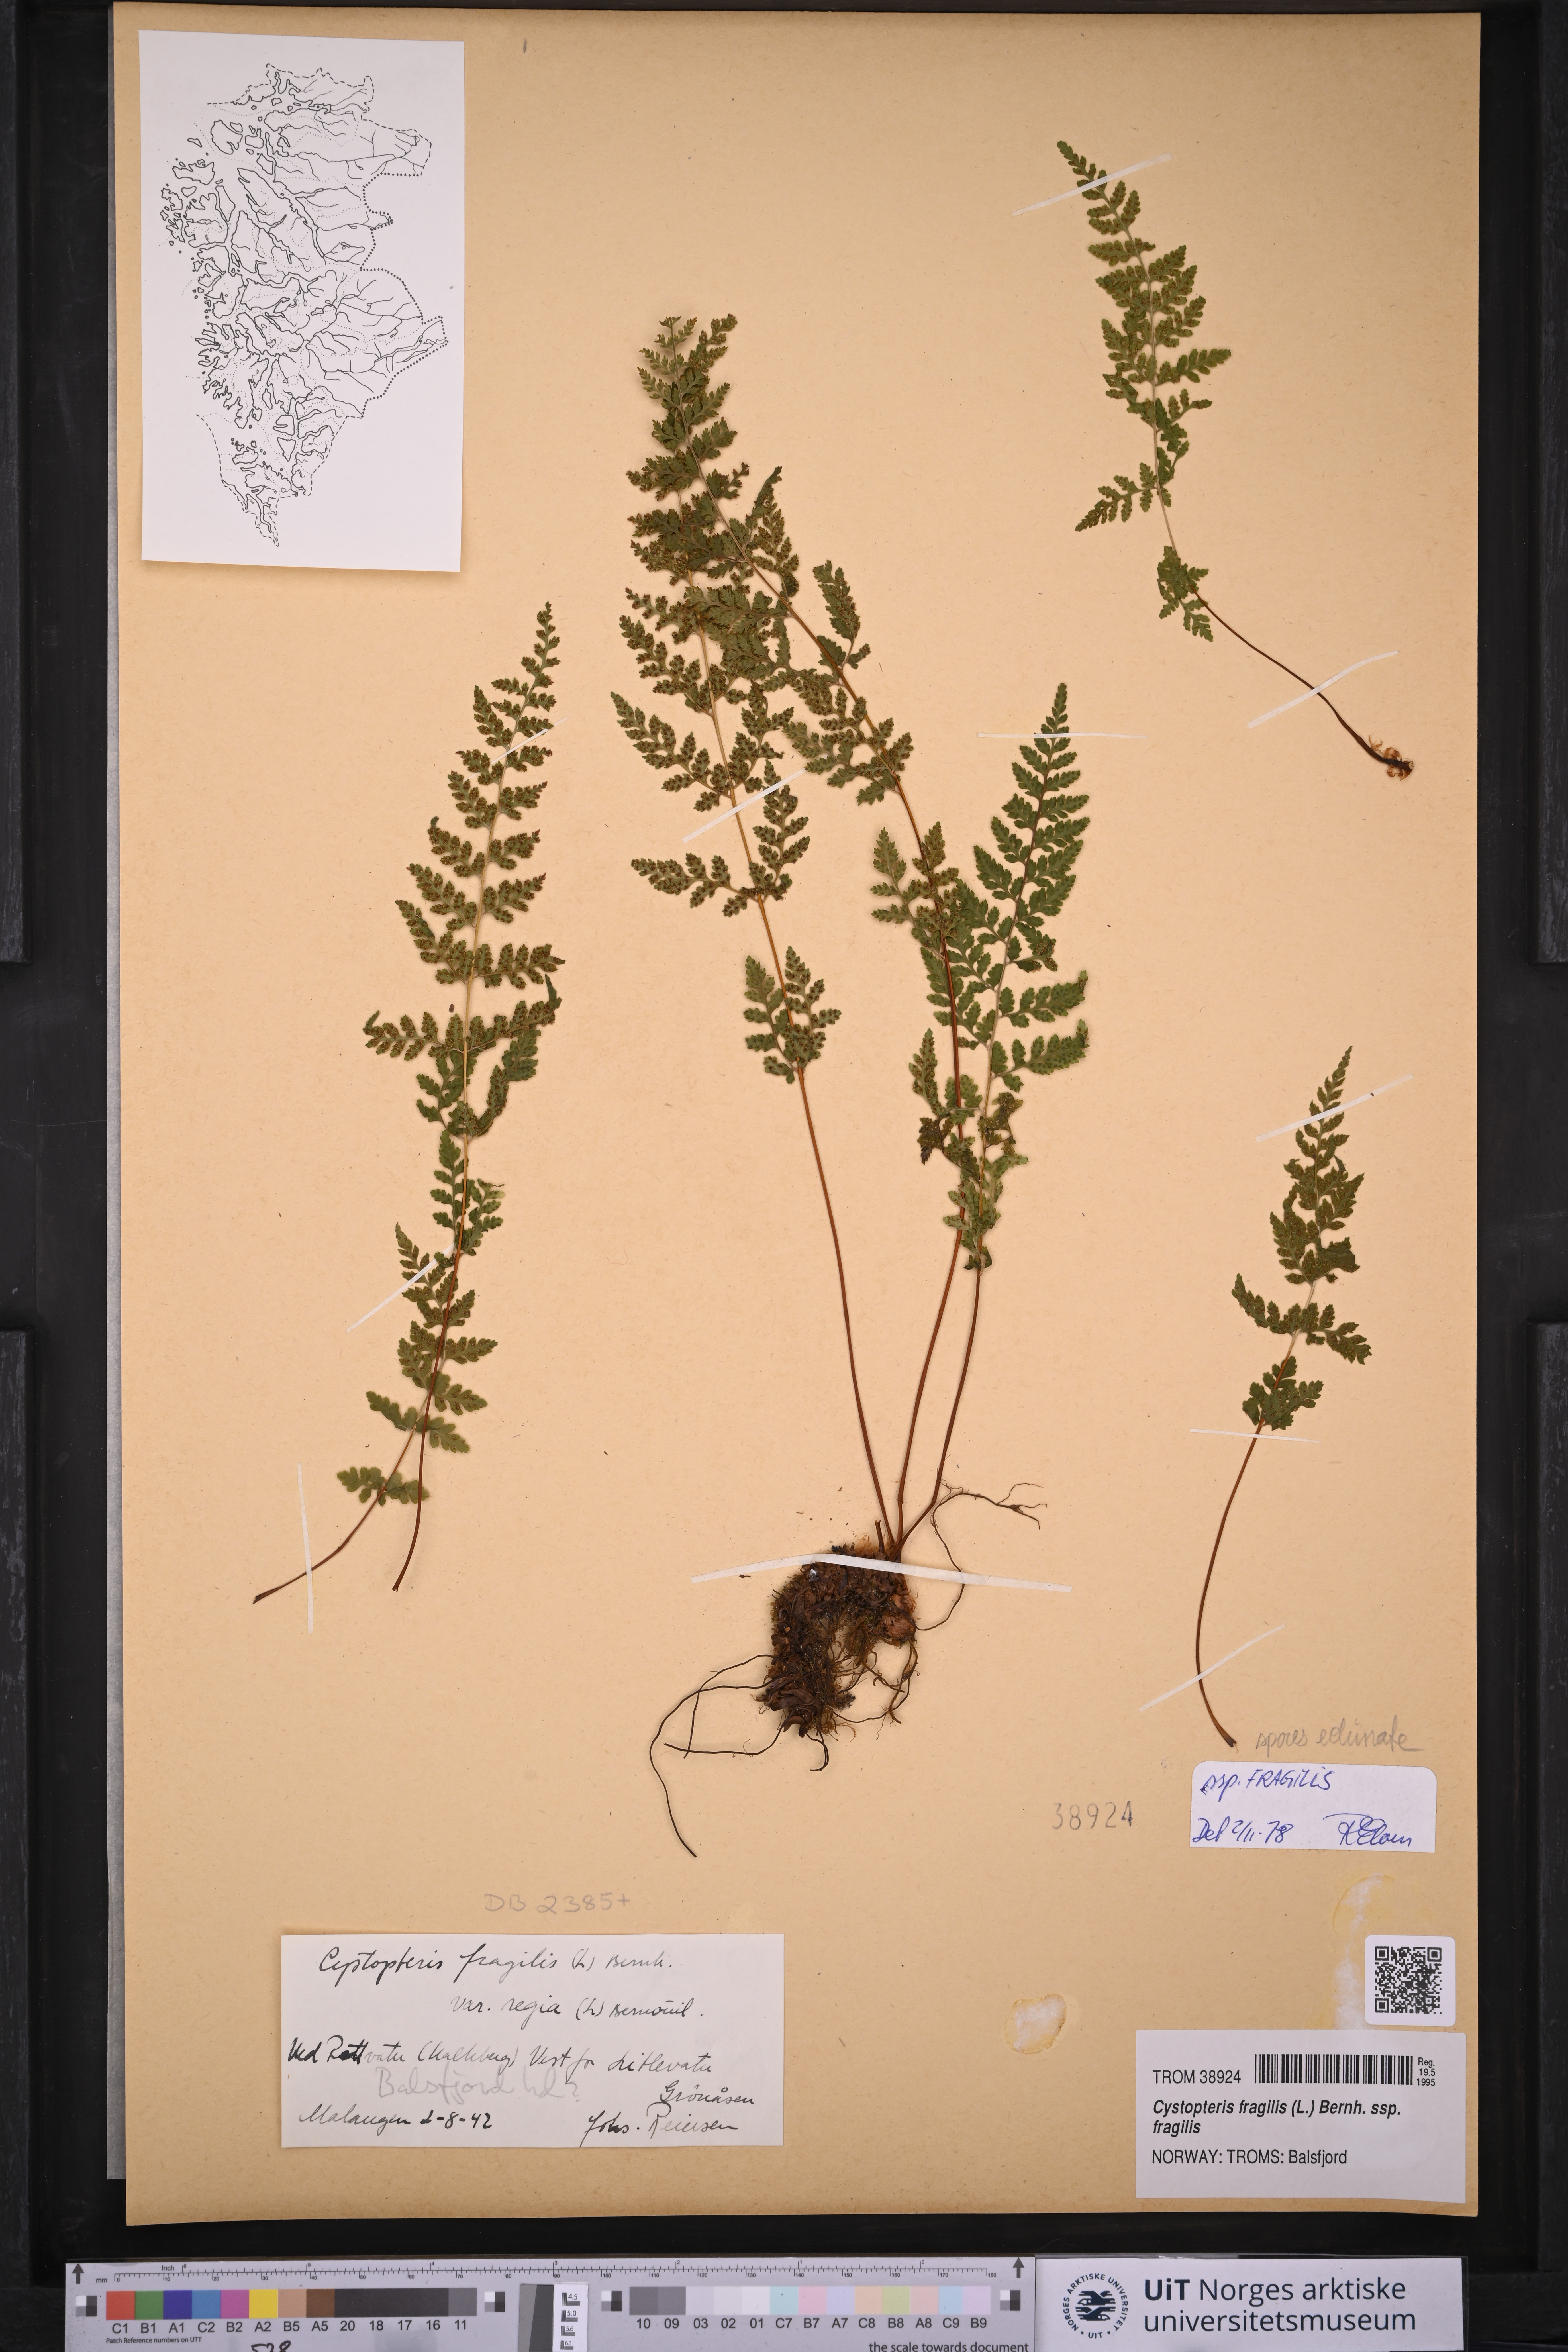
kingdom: Plantae
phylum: Tracheophyta
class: Polypodiopsida
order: Polypodiales
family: Cystopteridaceae
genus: Cystopteris
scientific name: Cystopteris fragilis
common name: Brittle bladder fern
